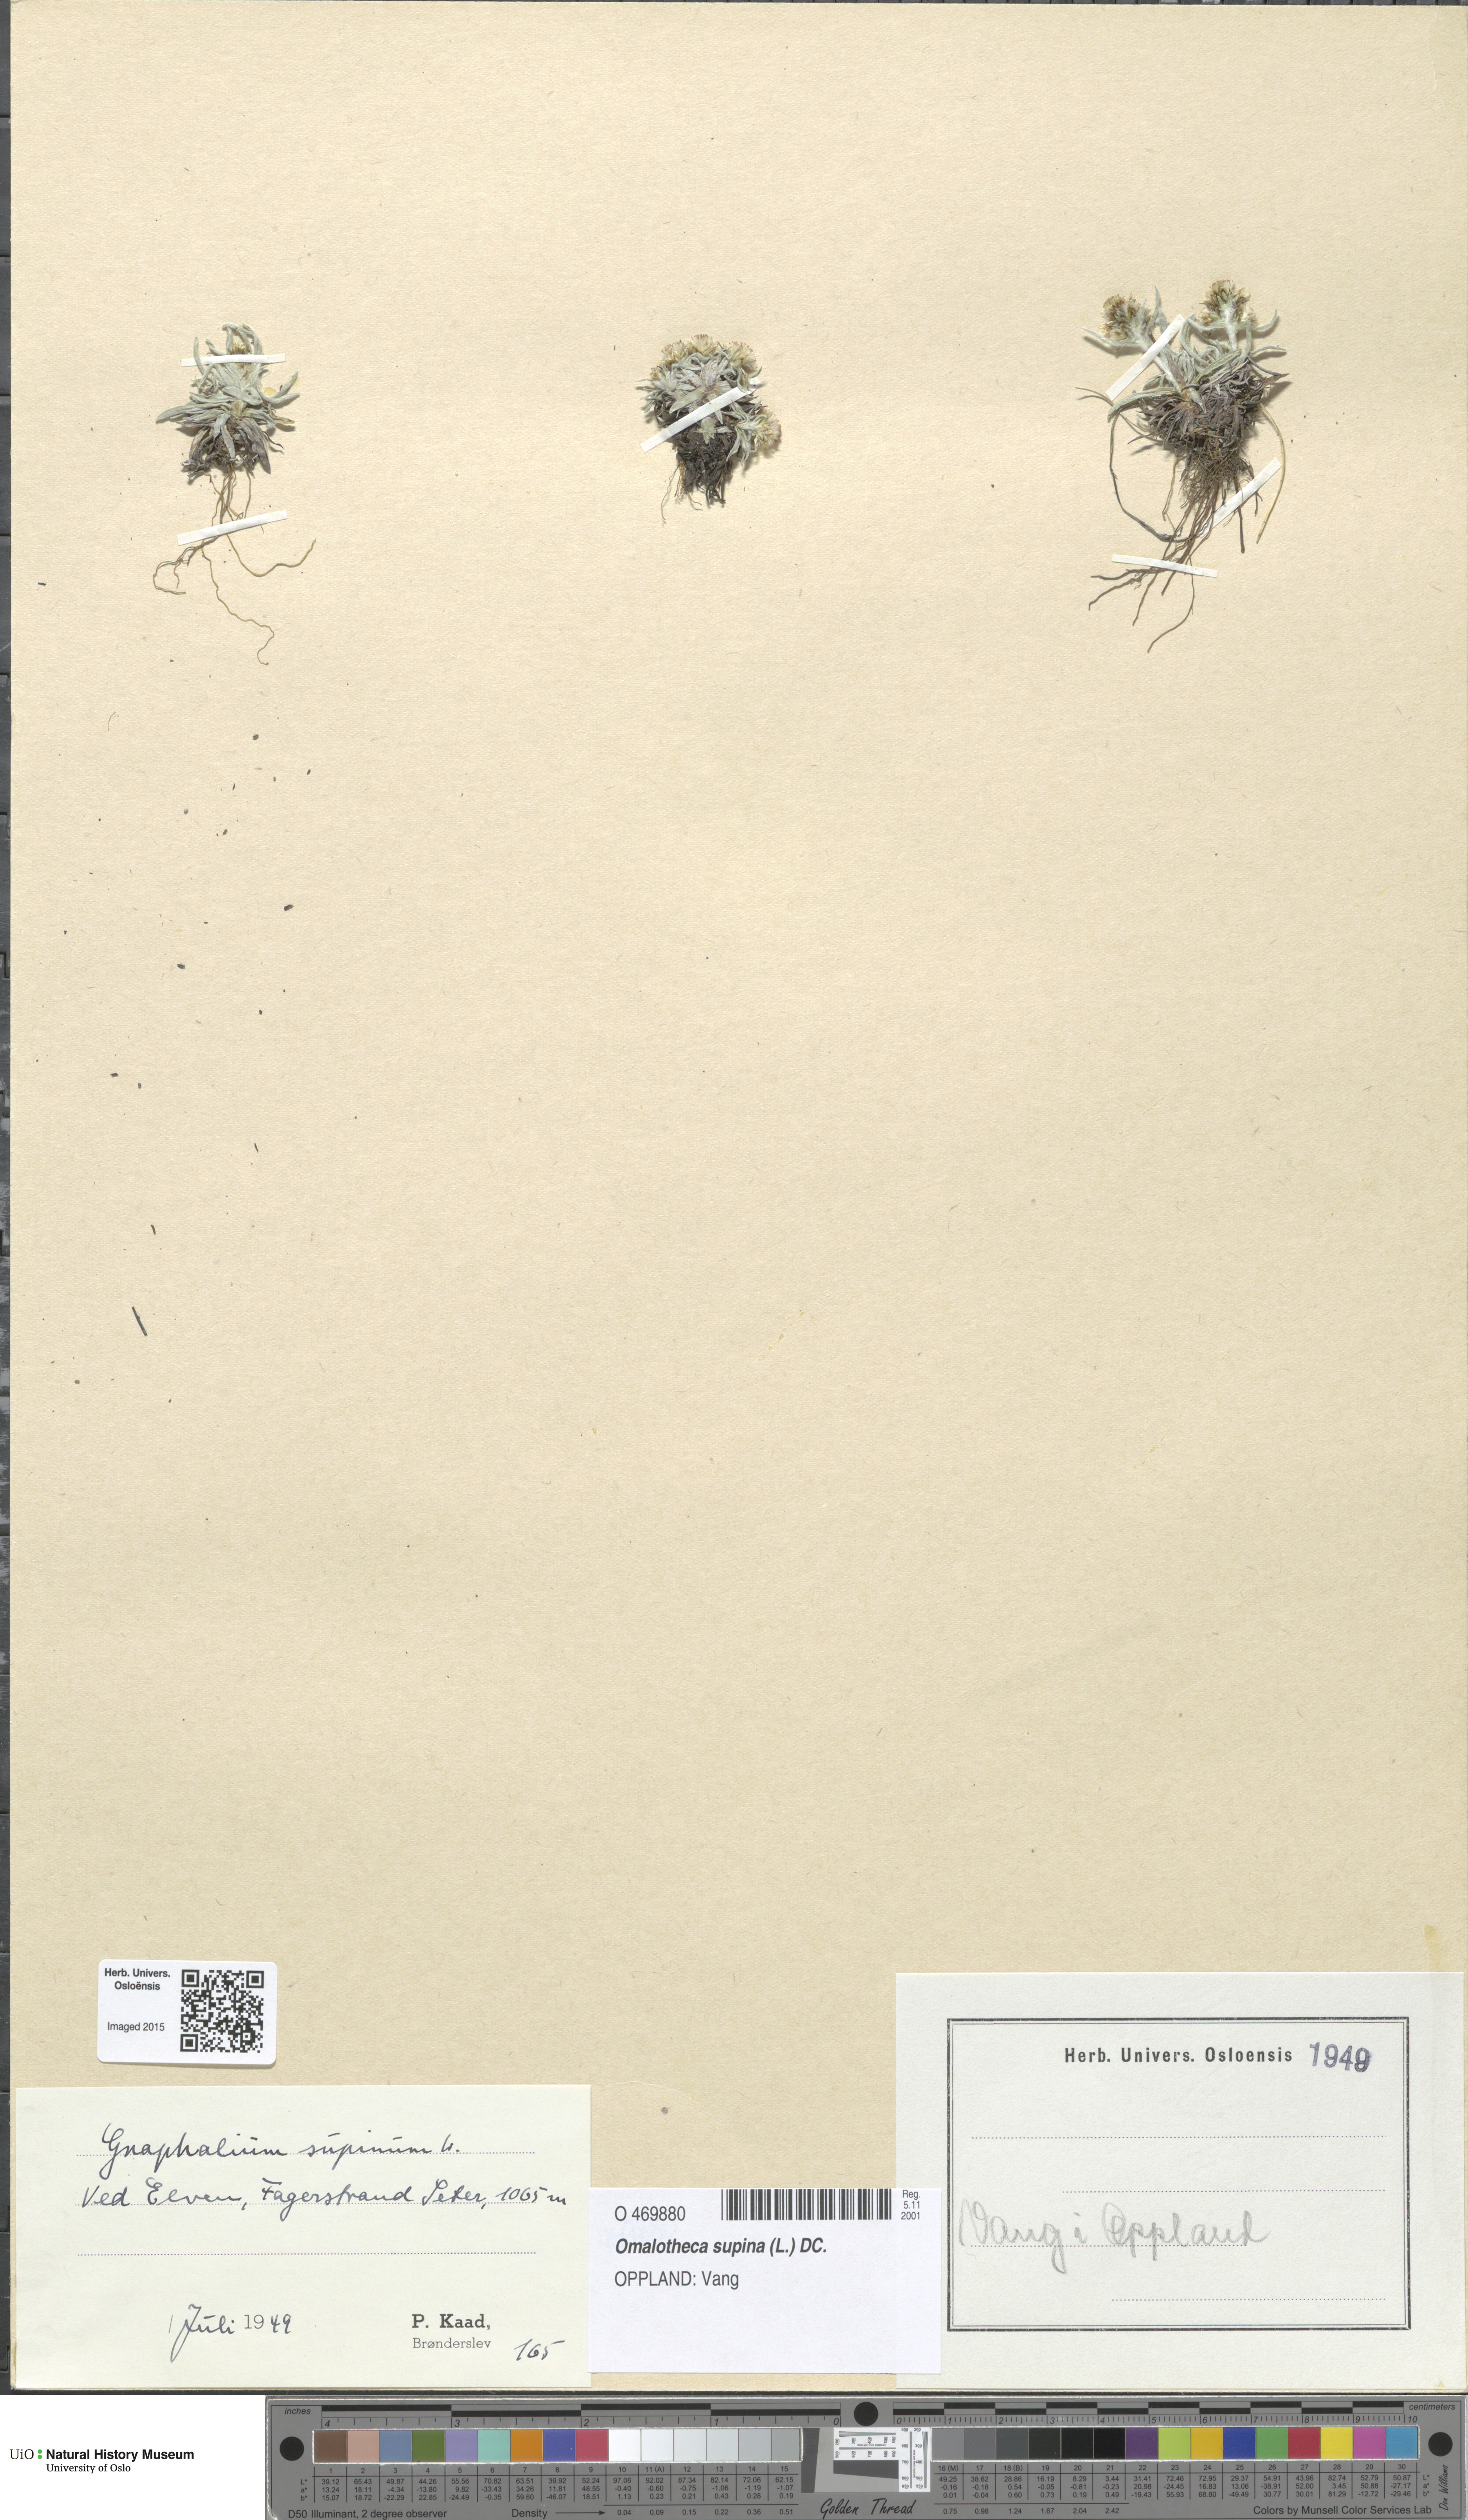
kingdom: Plantae
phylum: Tracheophyta
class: Magnoliopsida
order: Asterales
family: Asteraceae
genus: Omalotheca
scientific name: Omalotheca supina
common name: Alpine arctic-cudweed
